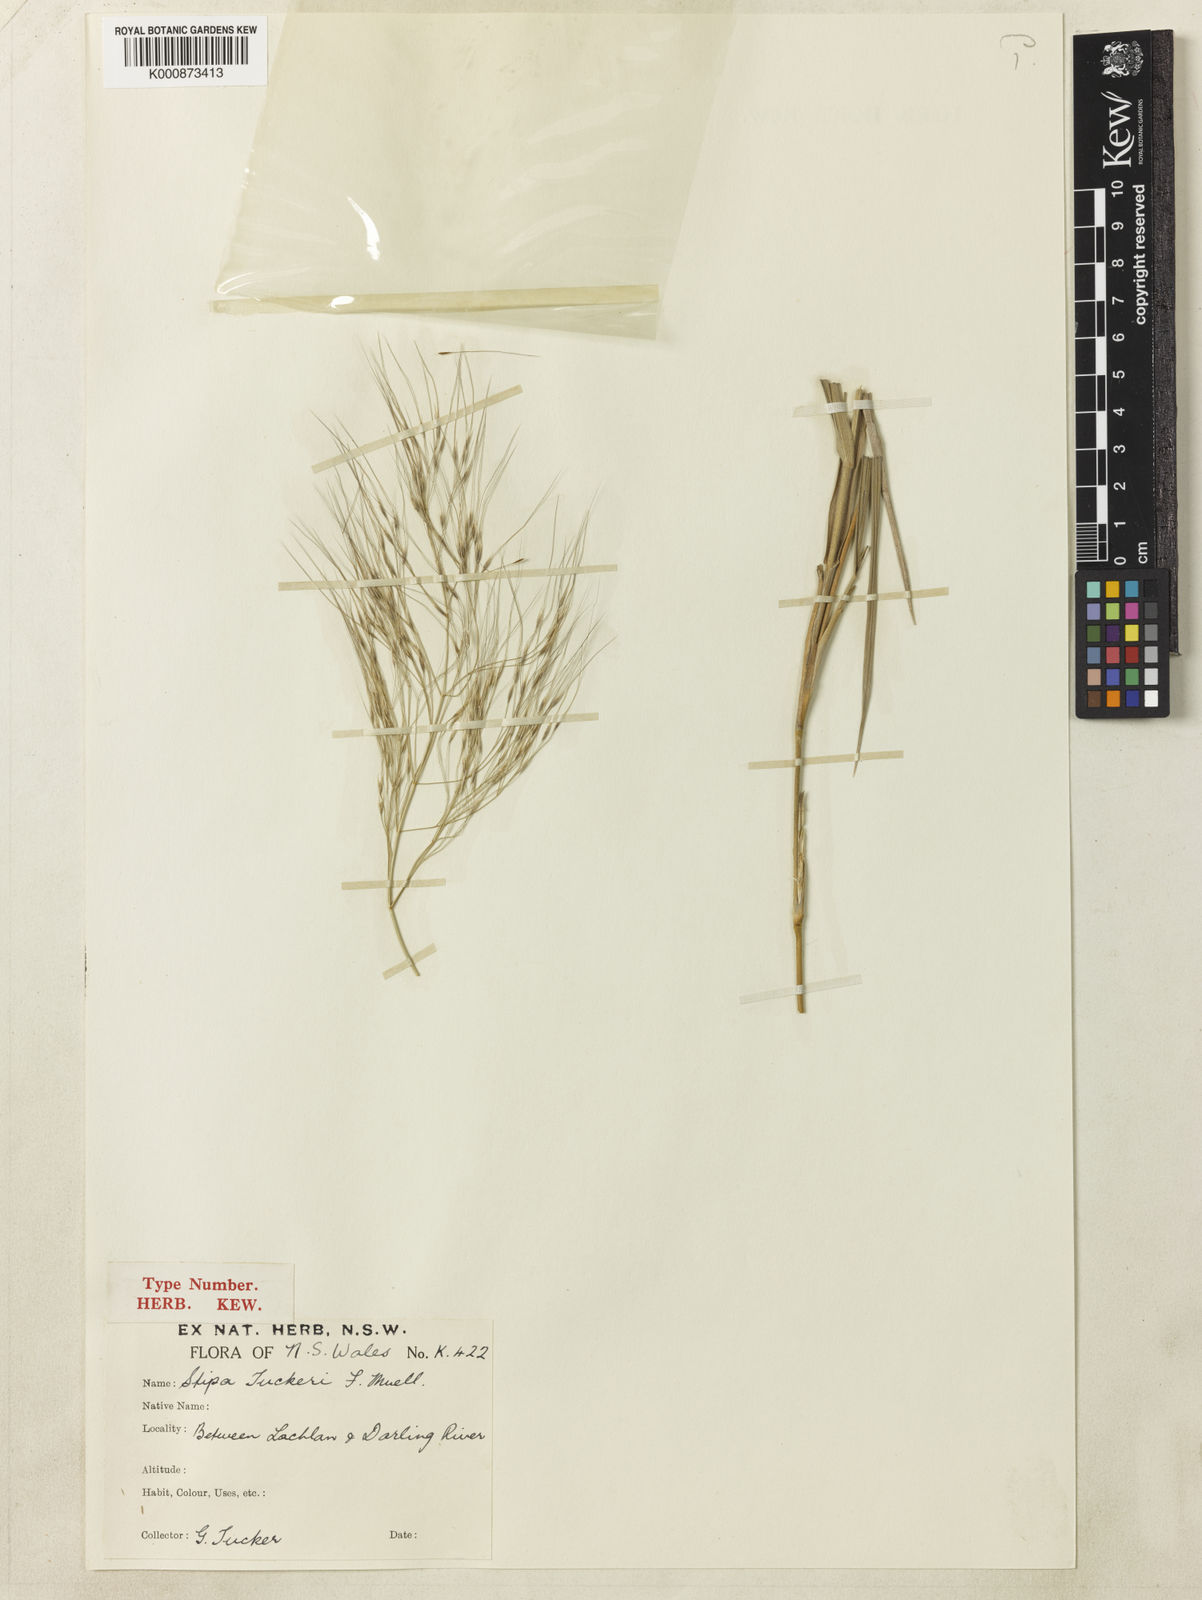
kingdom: Plantae
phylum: Tracheophyta
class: Liliopsida
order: Poales
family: Poaceae
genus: Austrostipa
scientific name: Austrostipa tuckeri
